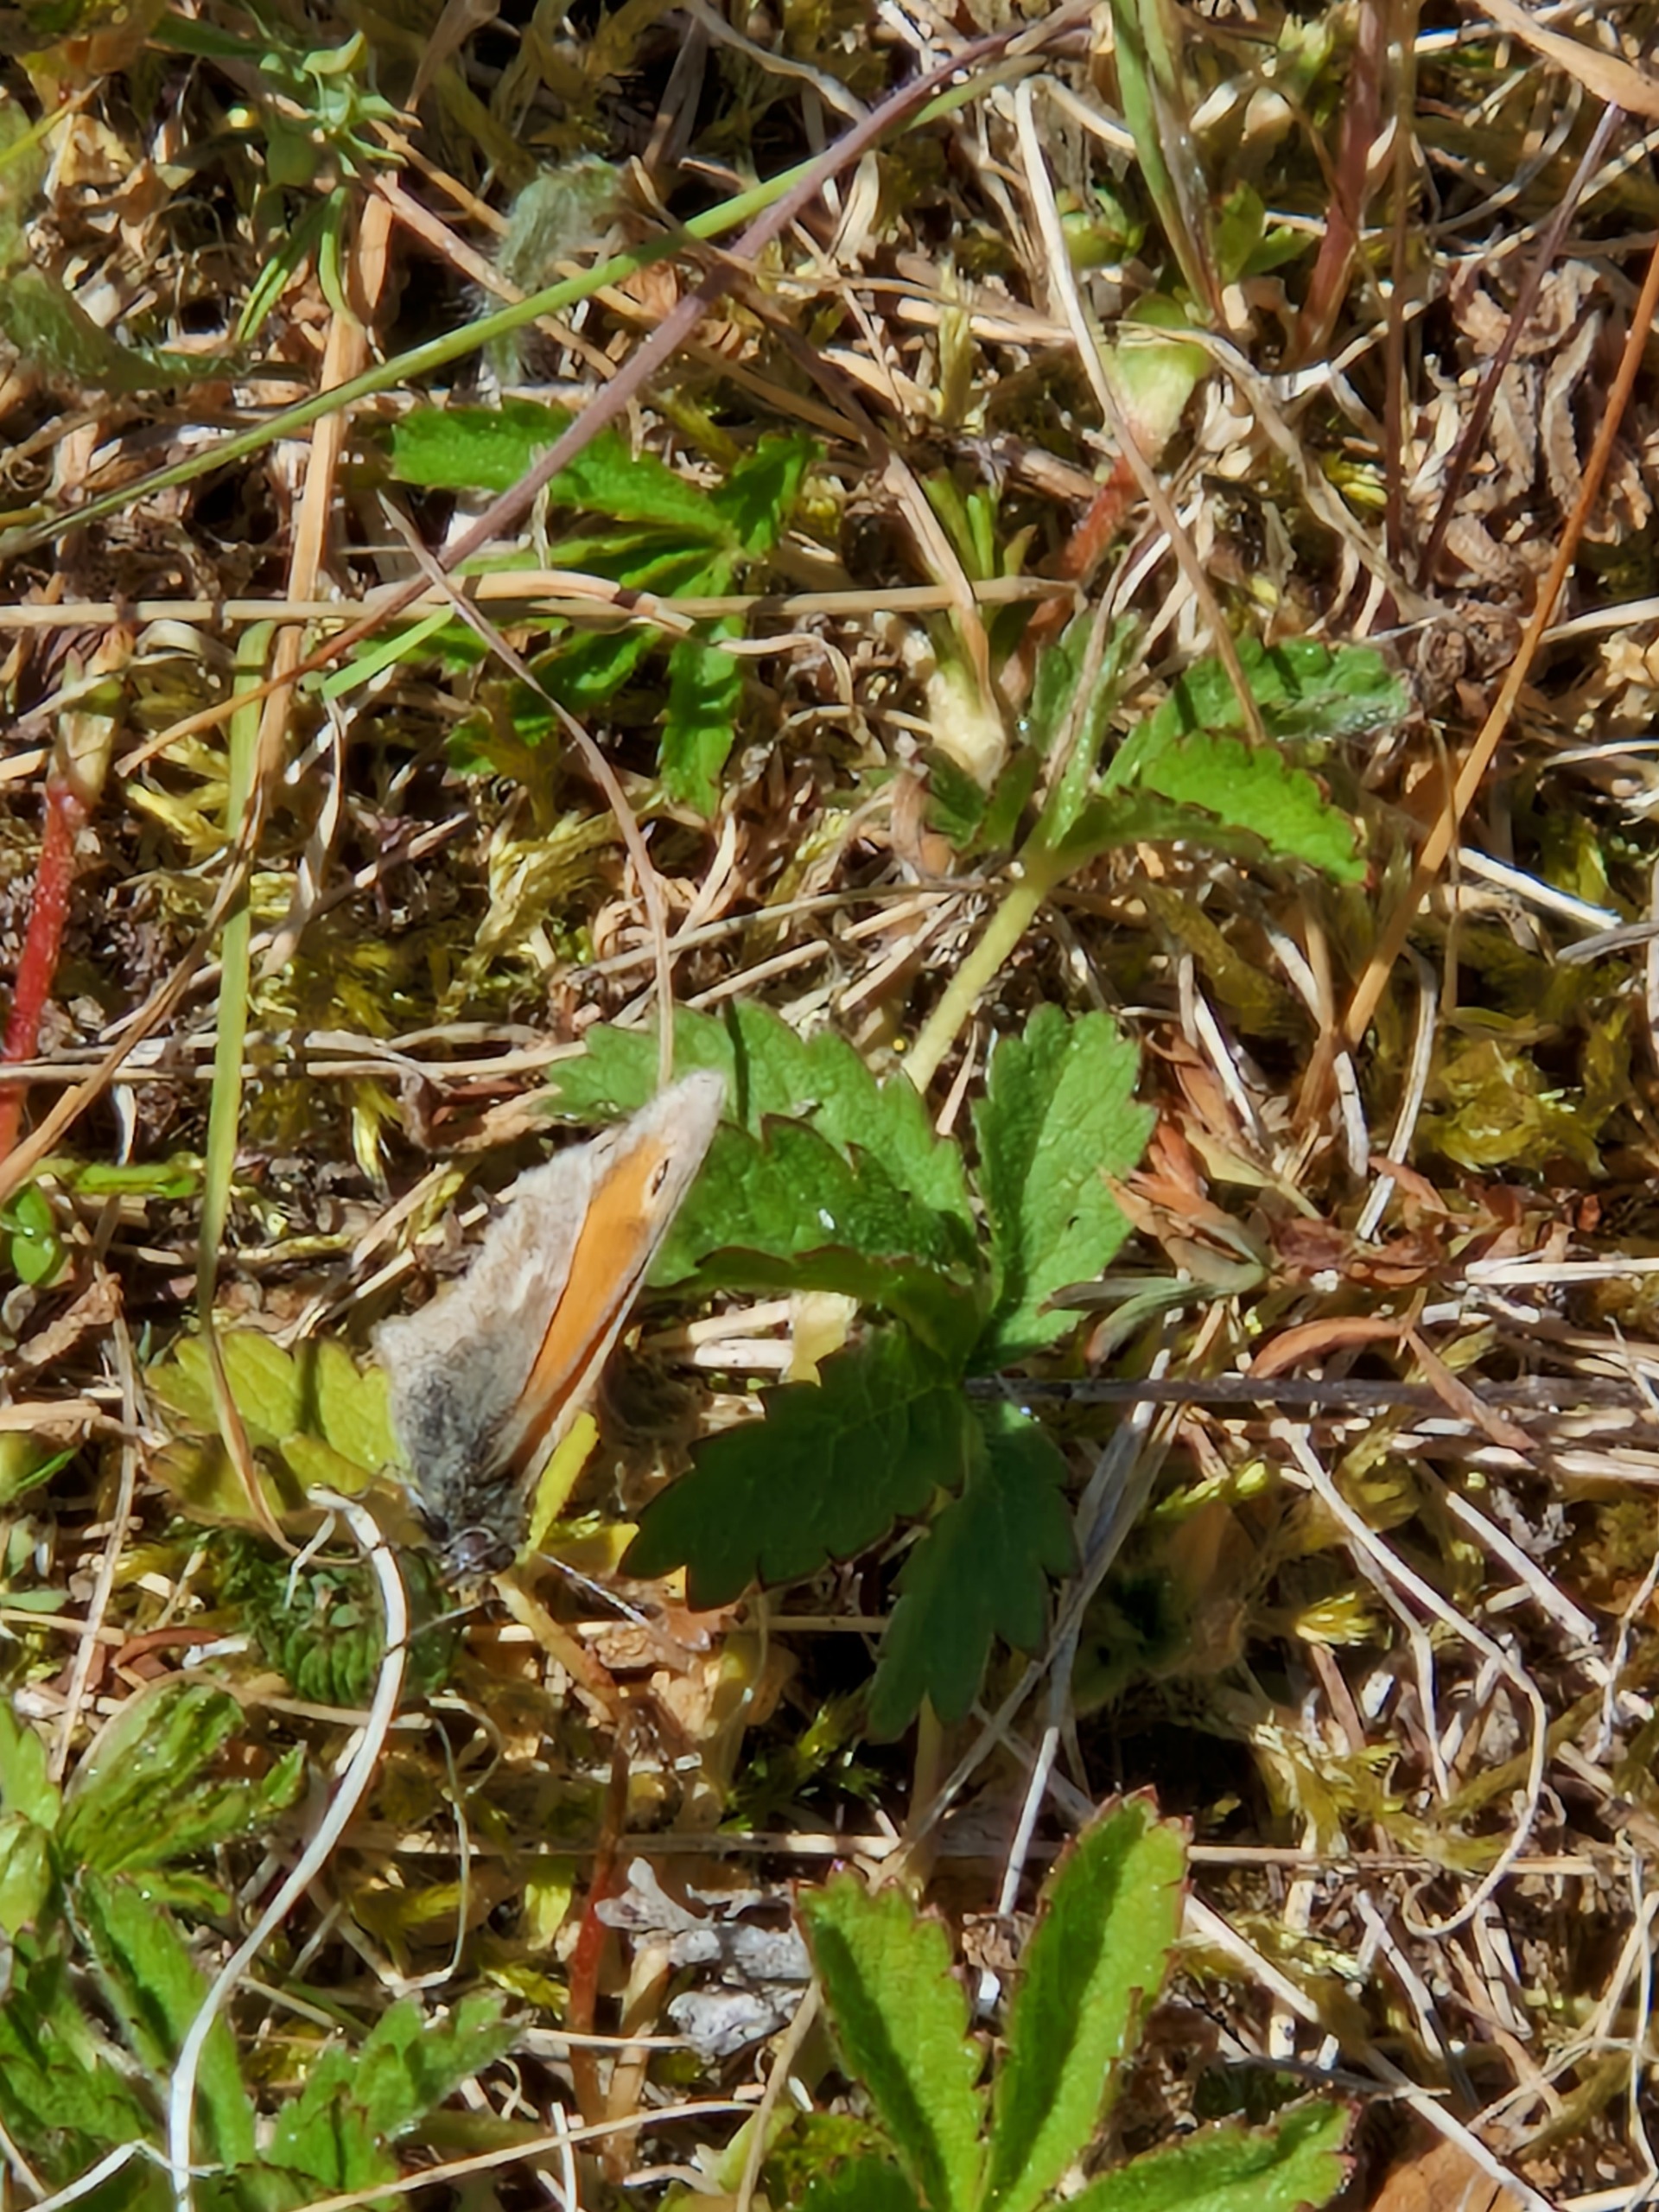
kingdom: Animalia
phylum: Arthropoda
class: Insecta
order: Lepidoptera
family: Nymphalidae
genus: Coenonympha
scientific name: Coenonympha pamphilus
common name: Okkergul randøje
